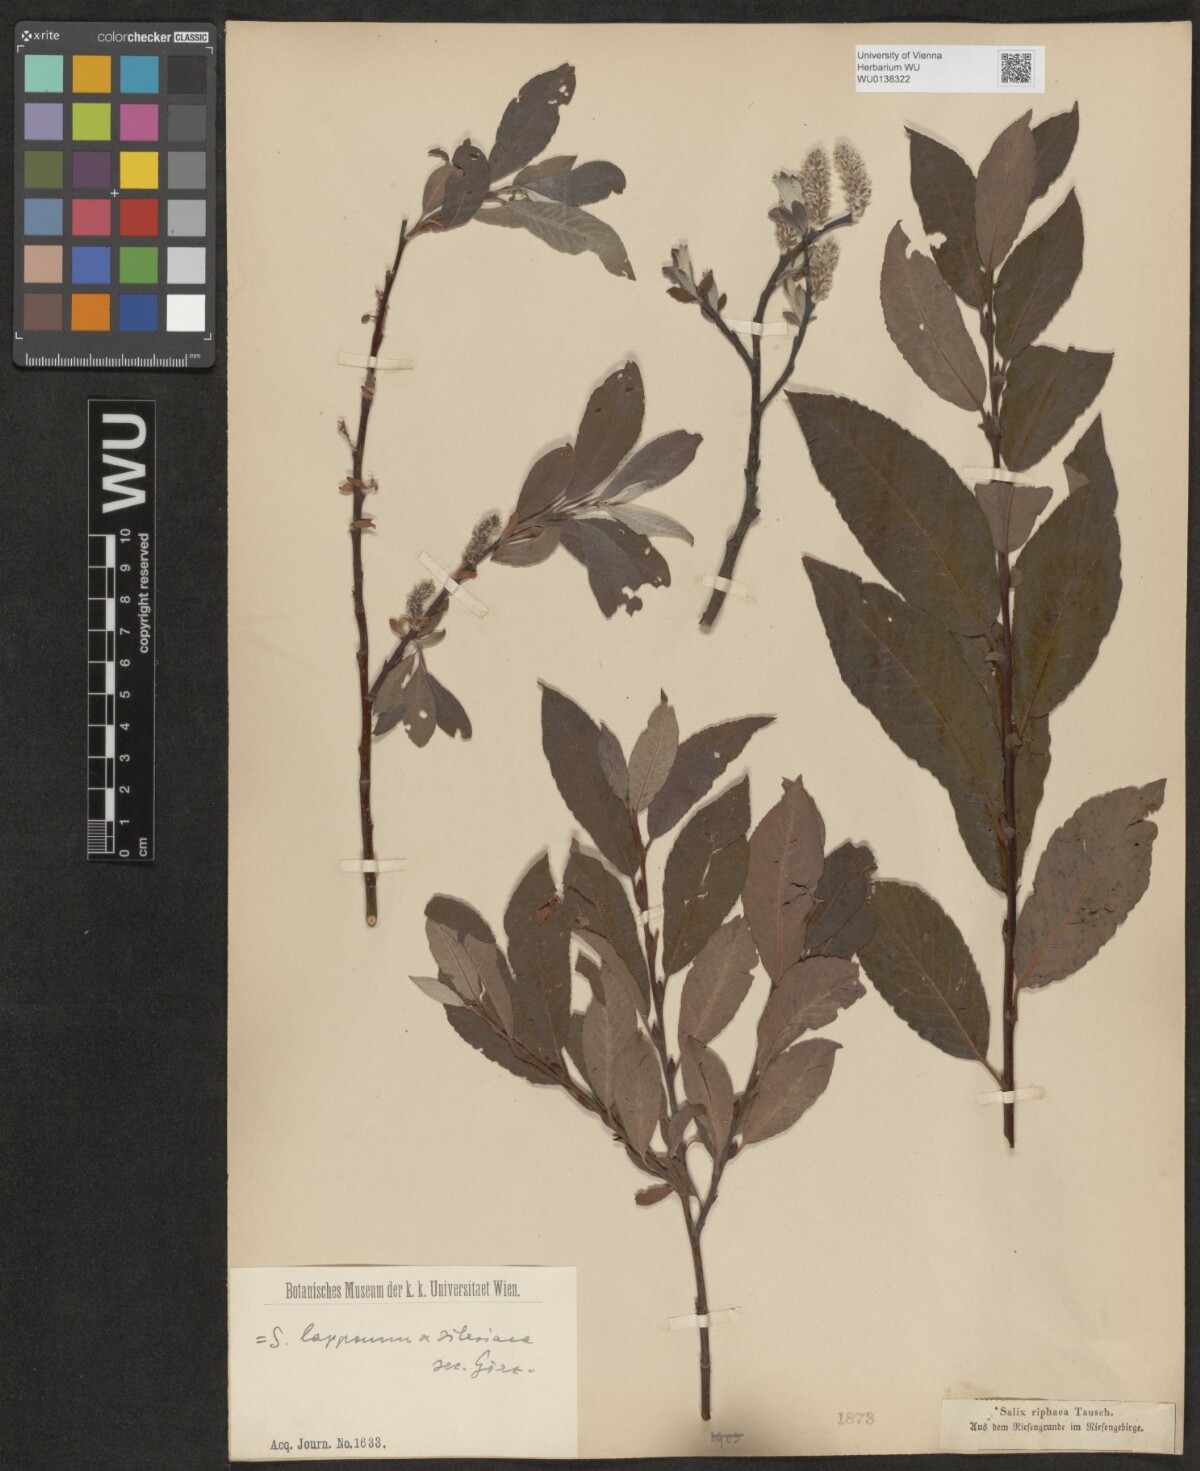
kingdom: Plantae
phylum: Tracheophyta
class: Magnoliopsida
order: Malpighiales
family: Salicaceae
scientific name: Salicaceae
